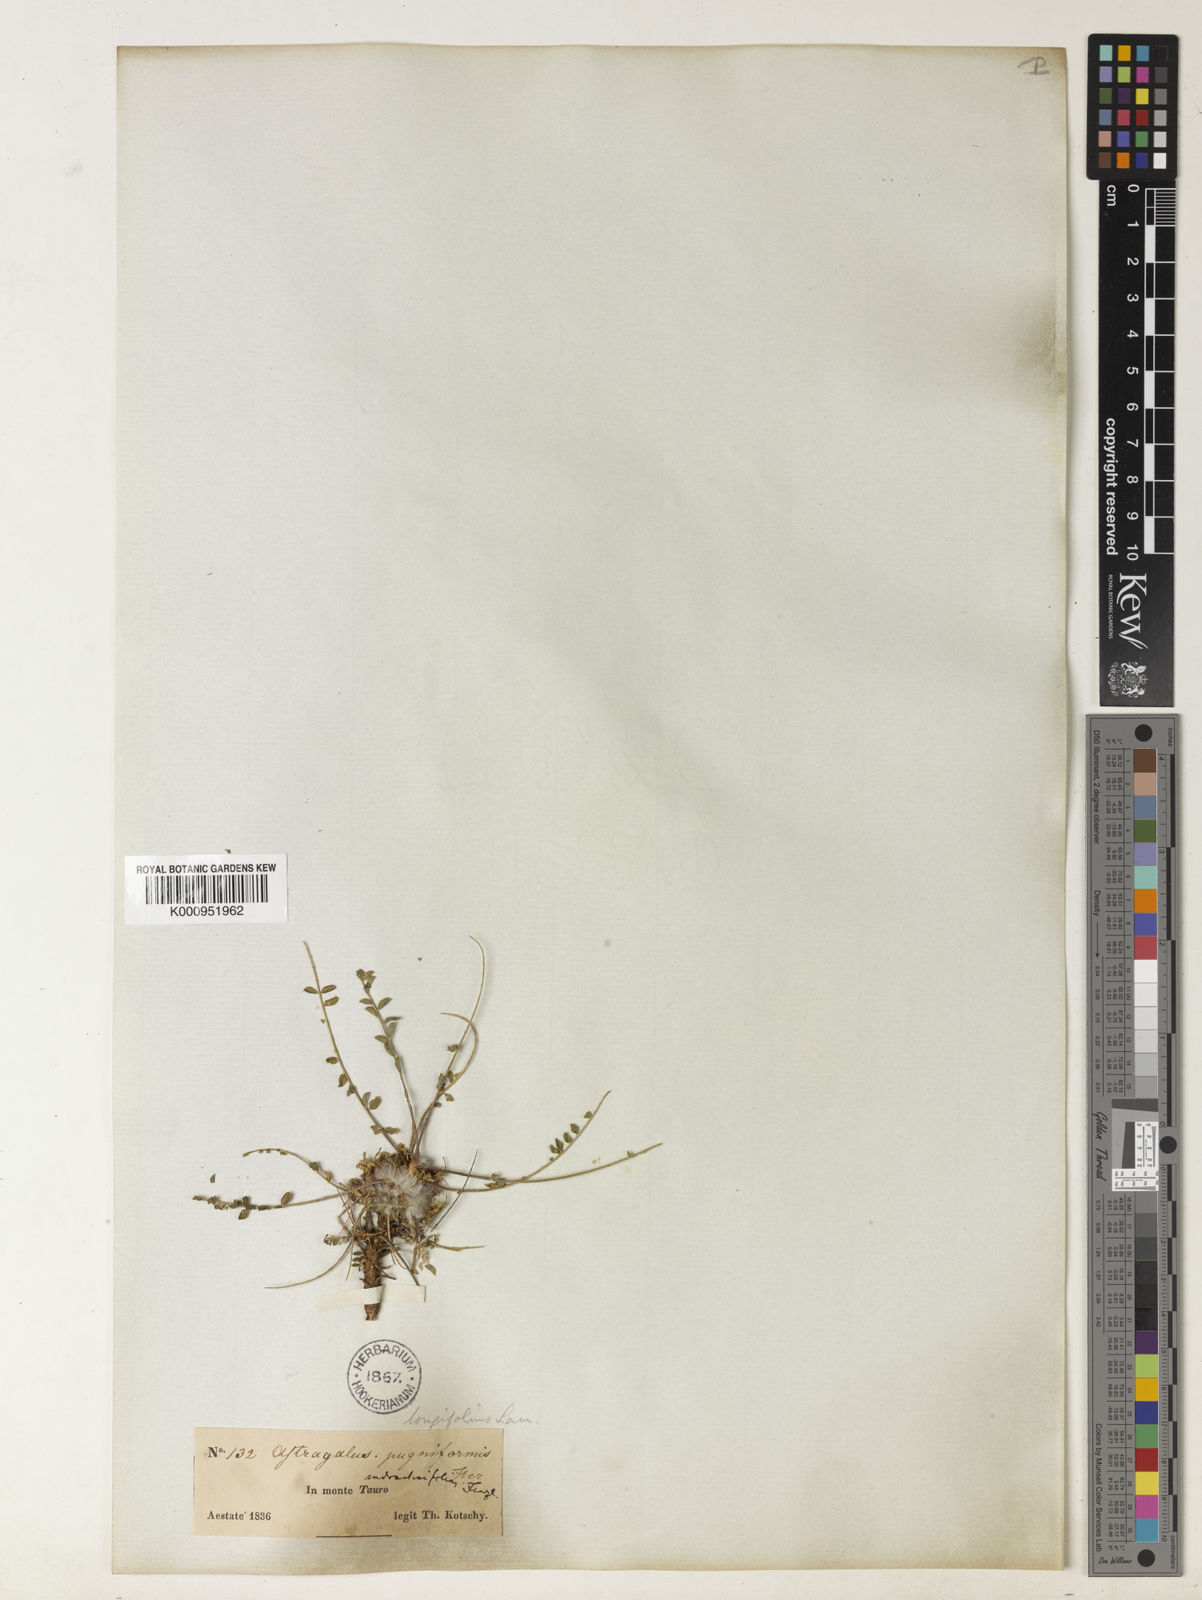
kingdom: Plantae
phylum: Tracheophyta
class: Magnoliopsida
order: Fabales
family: Fabaceae
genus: Astragalus
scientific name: Astragalus cephalotes
